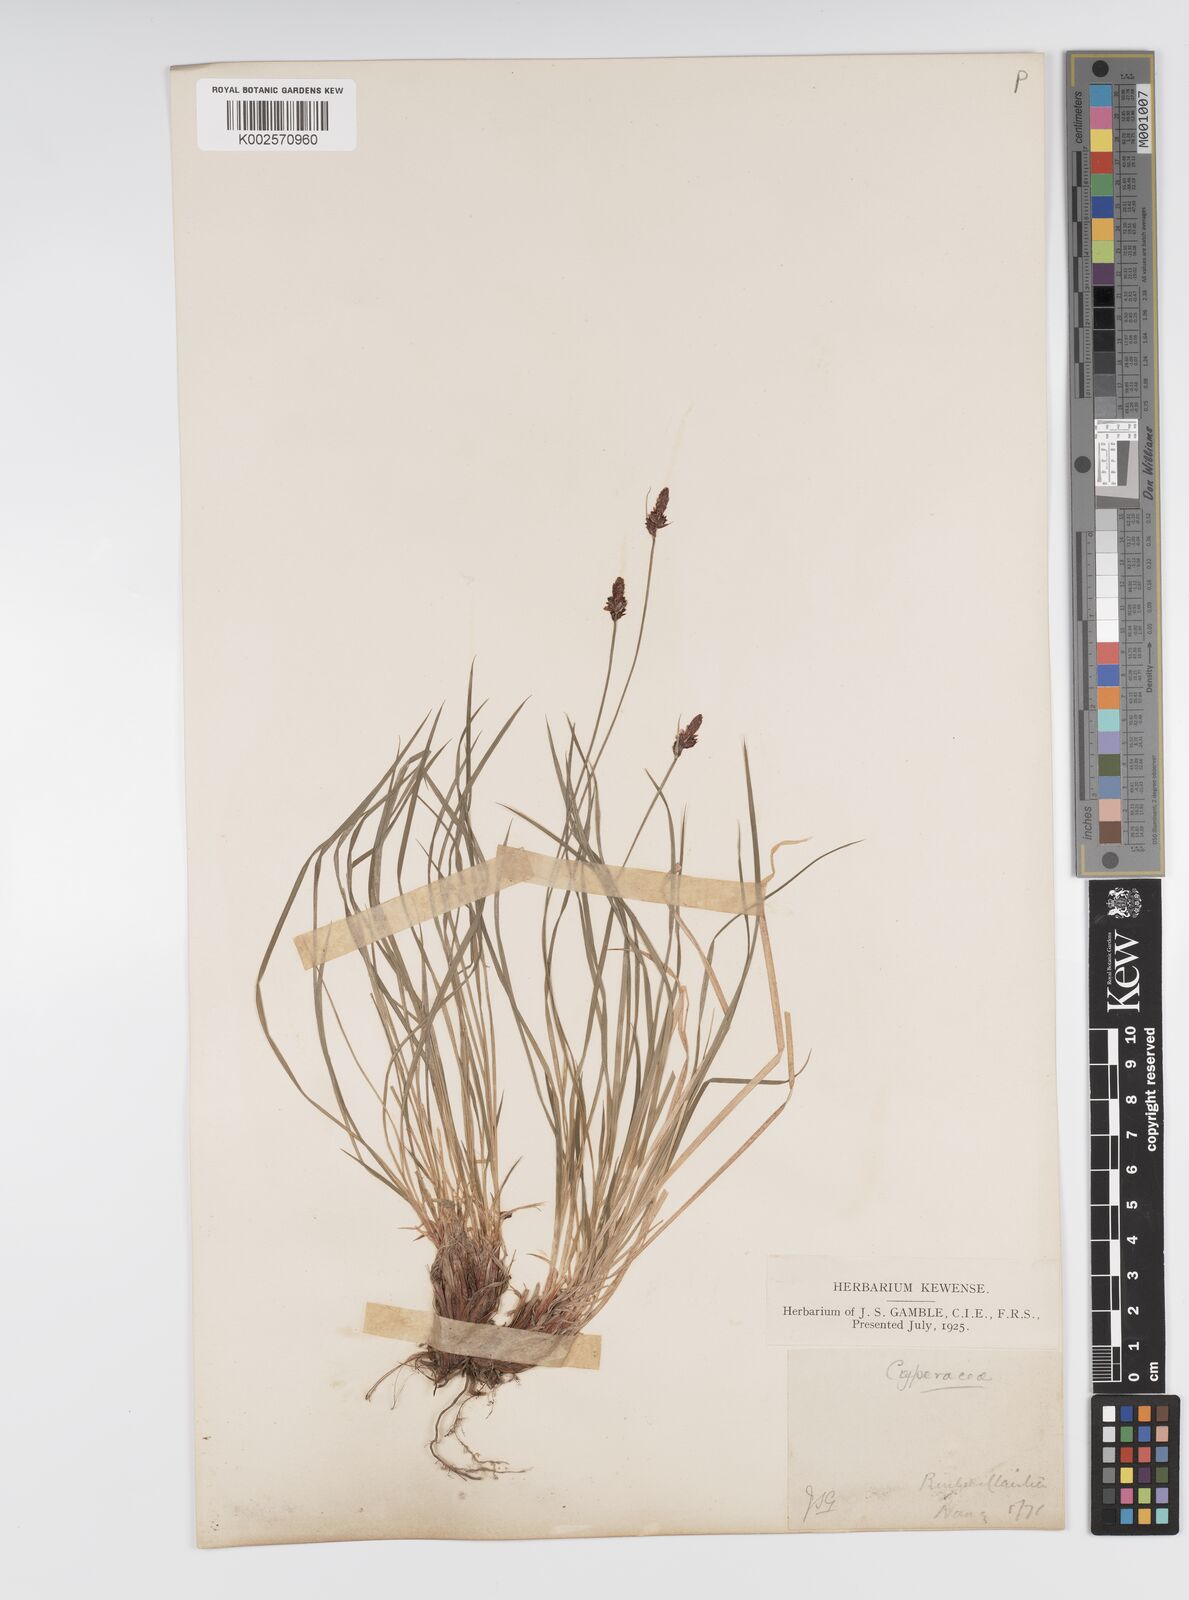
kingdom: Plantae
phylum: Tracheophyta
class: Liliopsida
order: Poales
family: Cyperaceae
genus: Carex
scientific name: Carex montana
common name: Soft-leaved sedge
